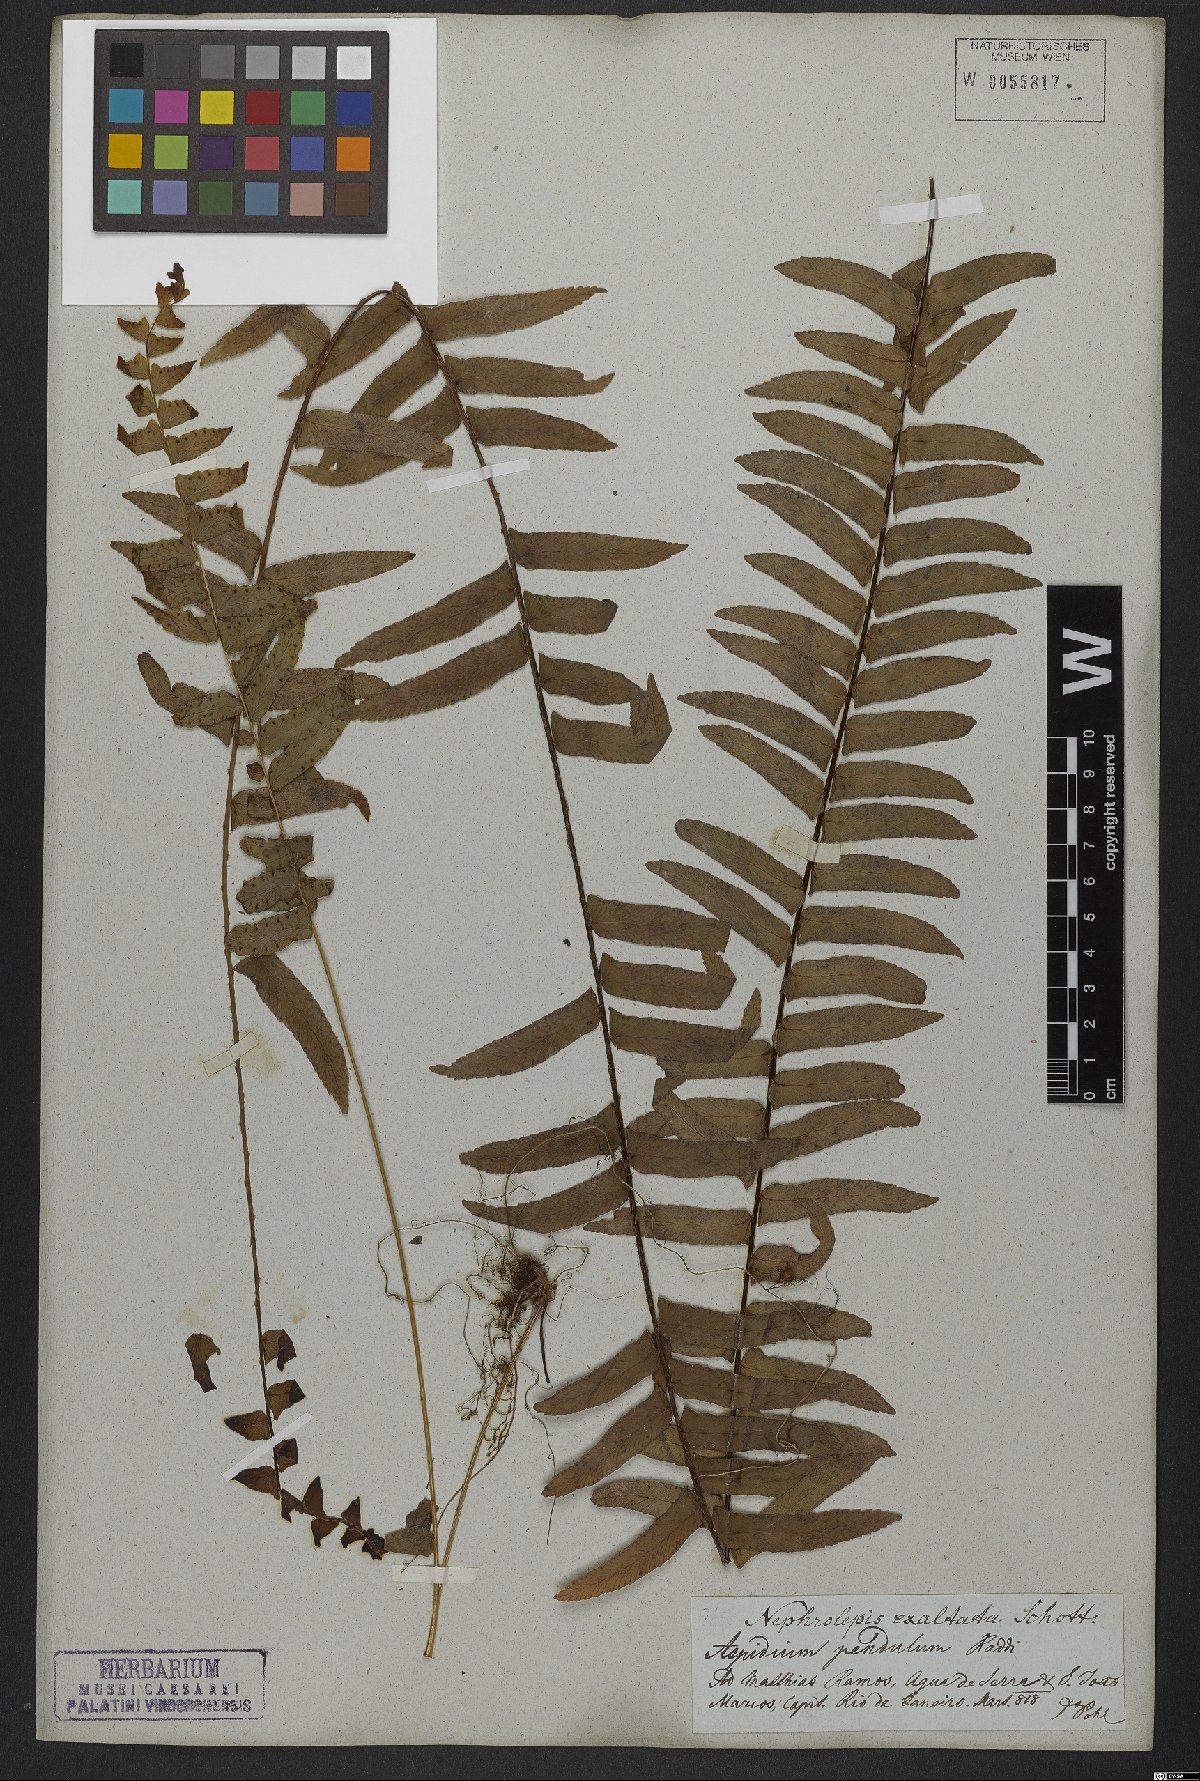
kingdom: Plantae
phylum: Tracheophyta
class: Polypodiopsida
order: Polypodiales
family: Nephrolepidaceae
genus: Nephrolepis
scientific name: Nephrolepis exaltata
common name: Sword fern
